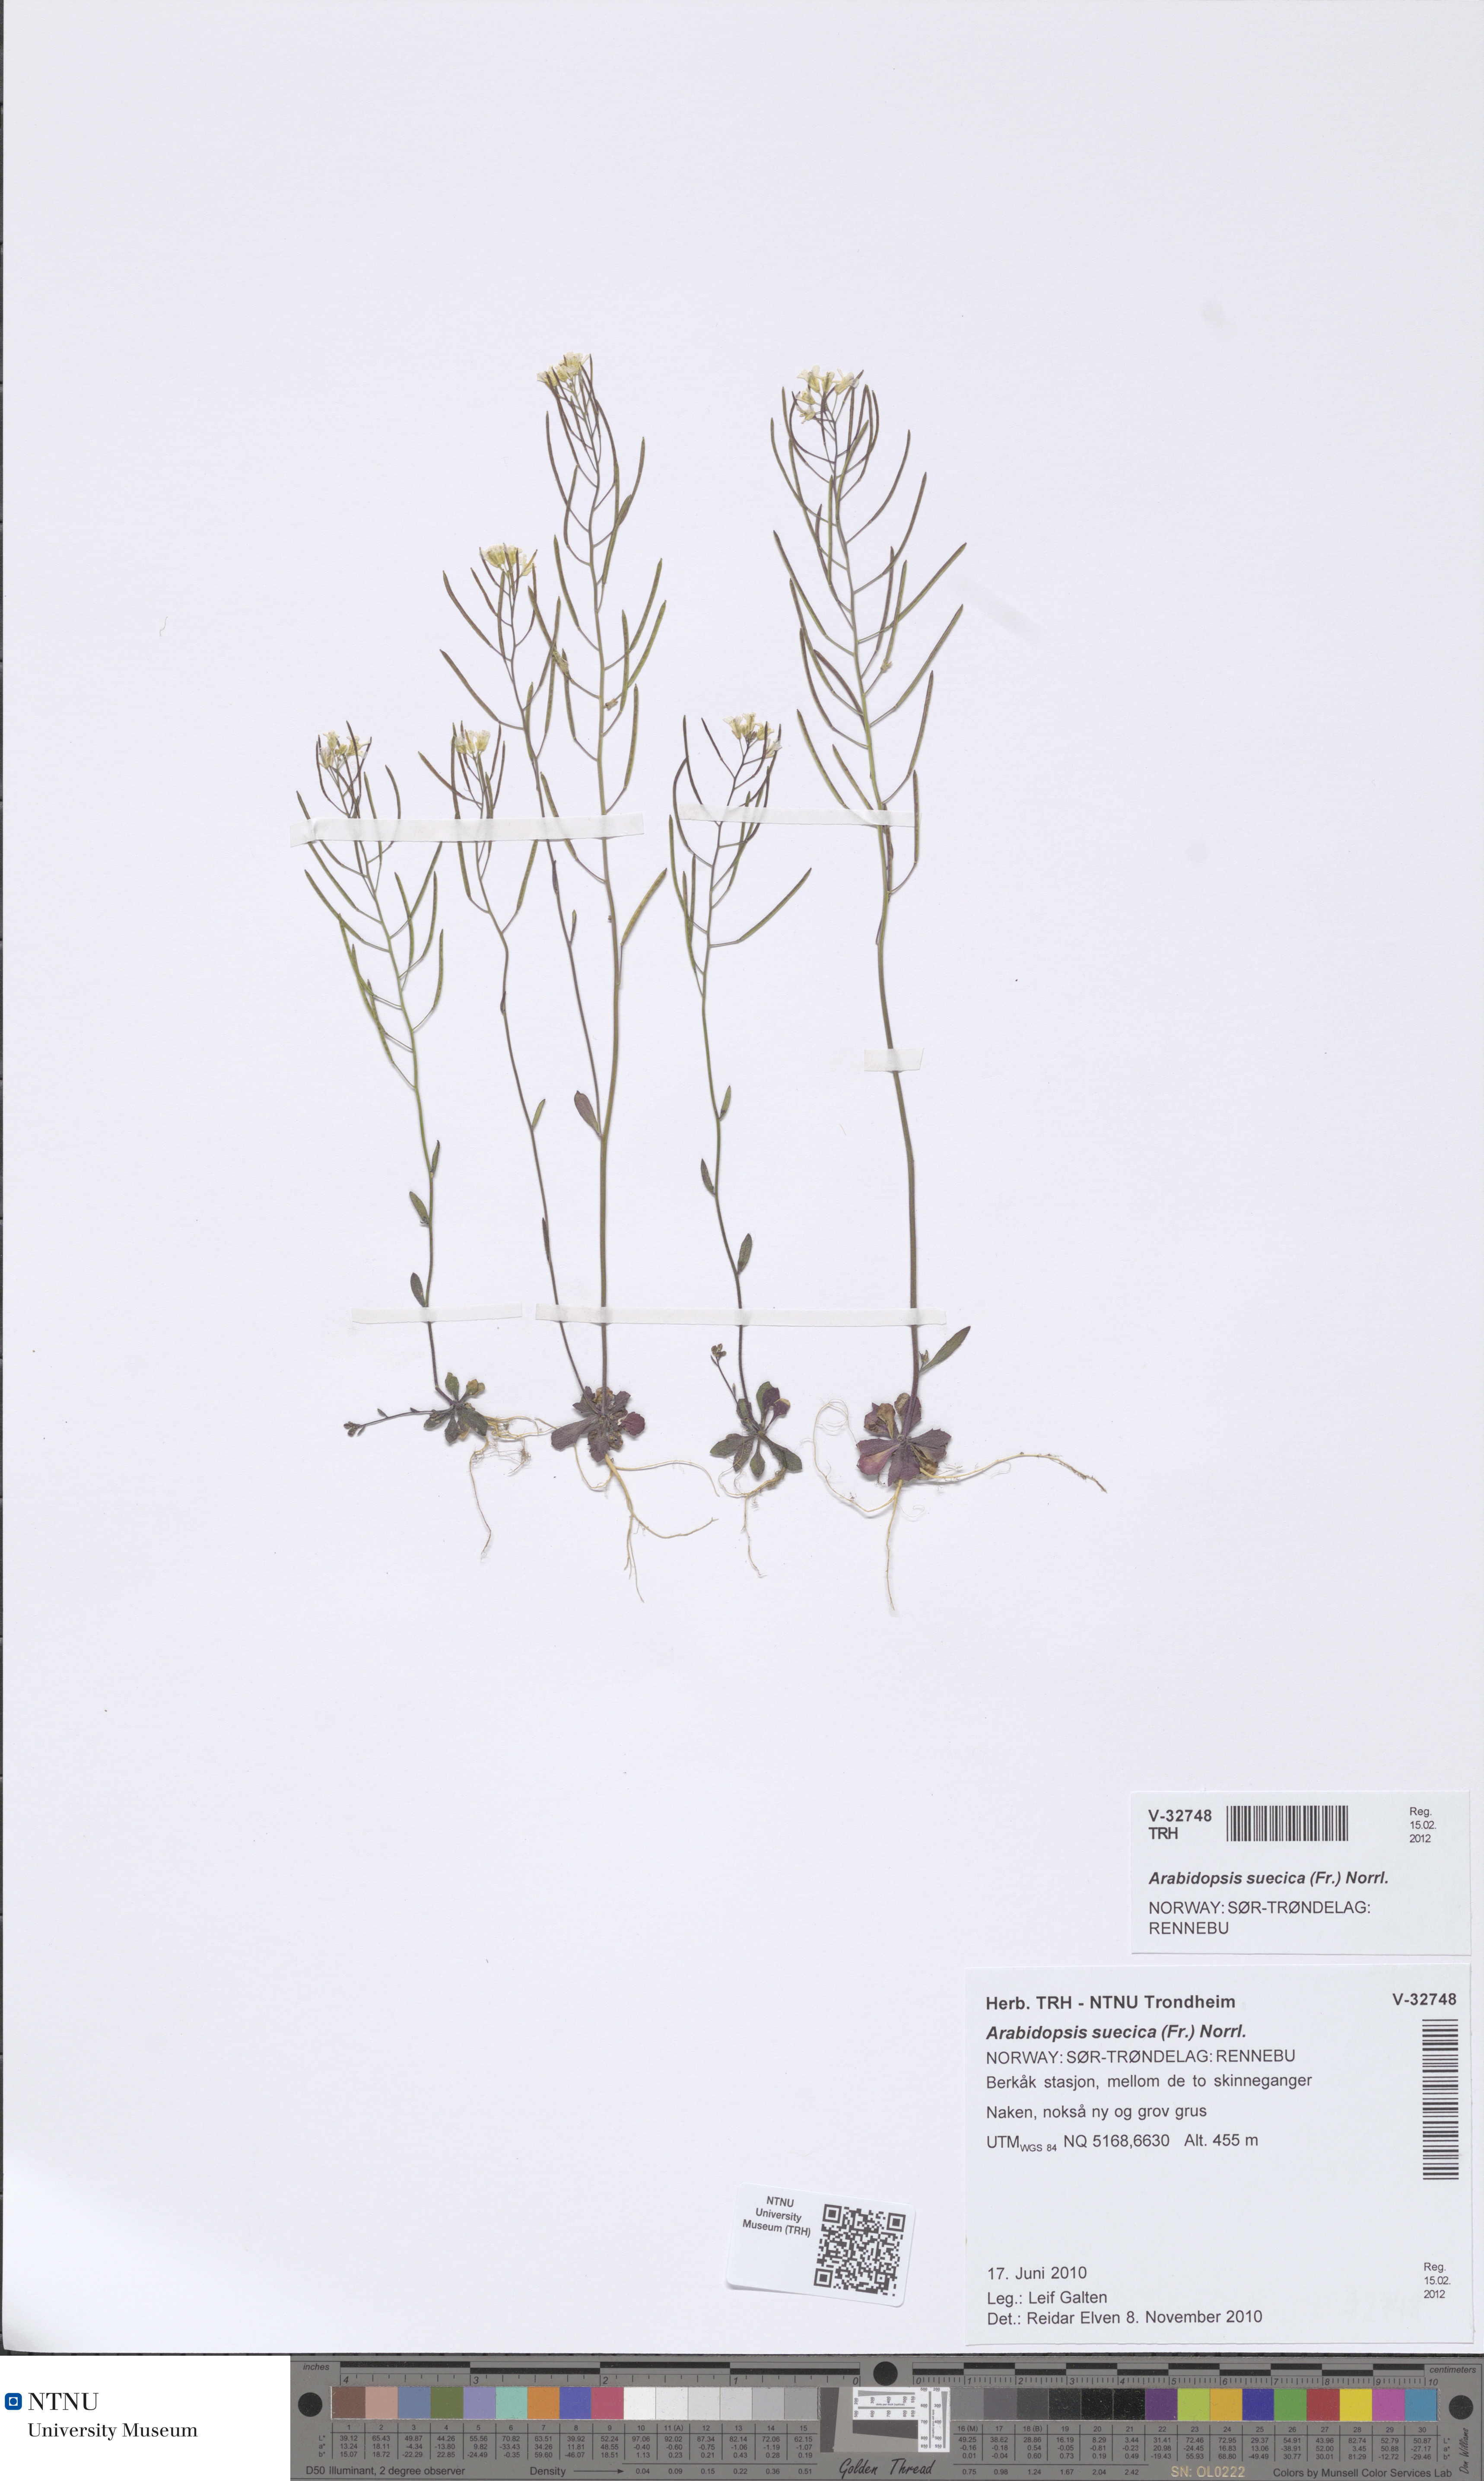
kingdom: Plantae
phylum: Tracheophyta
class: Magnoliopsida
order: Brassicales
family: Brassicaceae
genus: Arabidopsis
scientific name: Arabidopsis suecica
